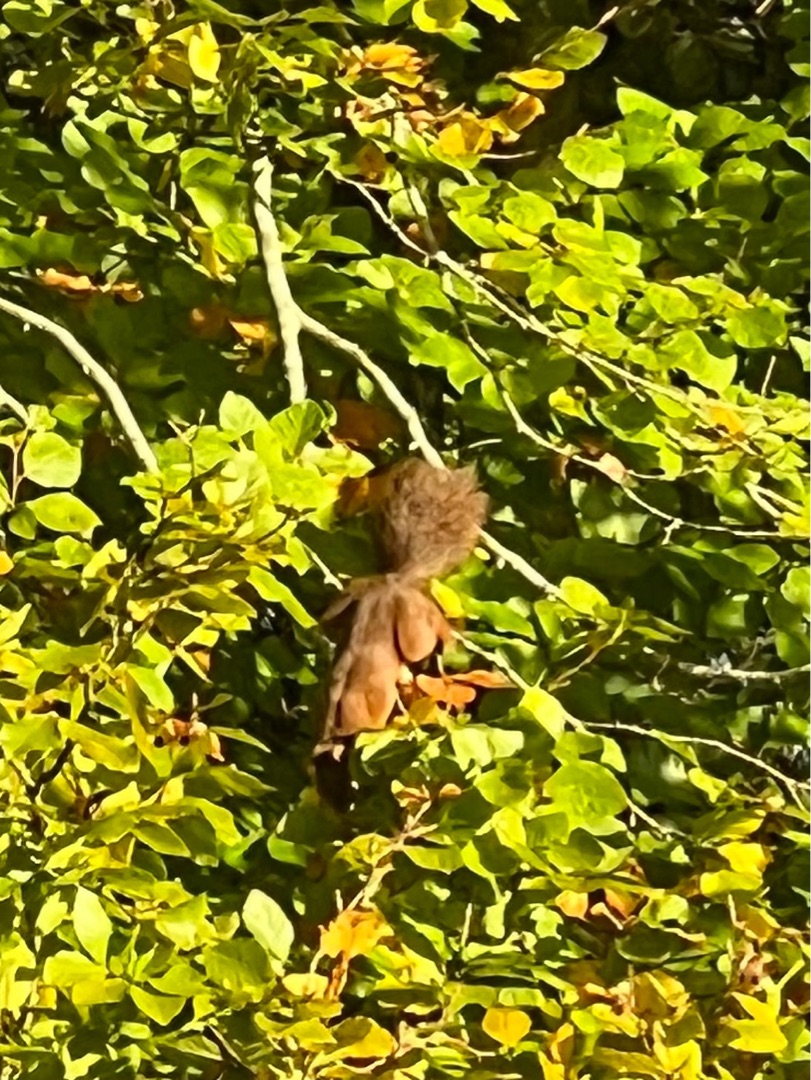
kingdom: Animalia
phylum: Chordata
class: Mammalia
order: Rodentia
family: Sciuridae
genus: Sciurus
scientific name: Sciurus vulgaris
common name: Egern
